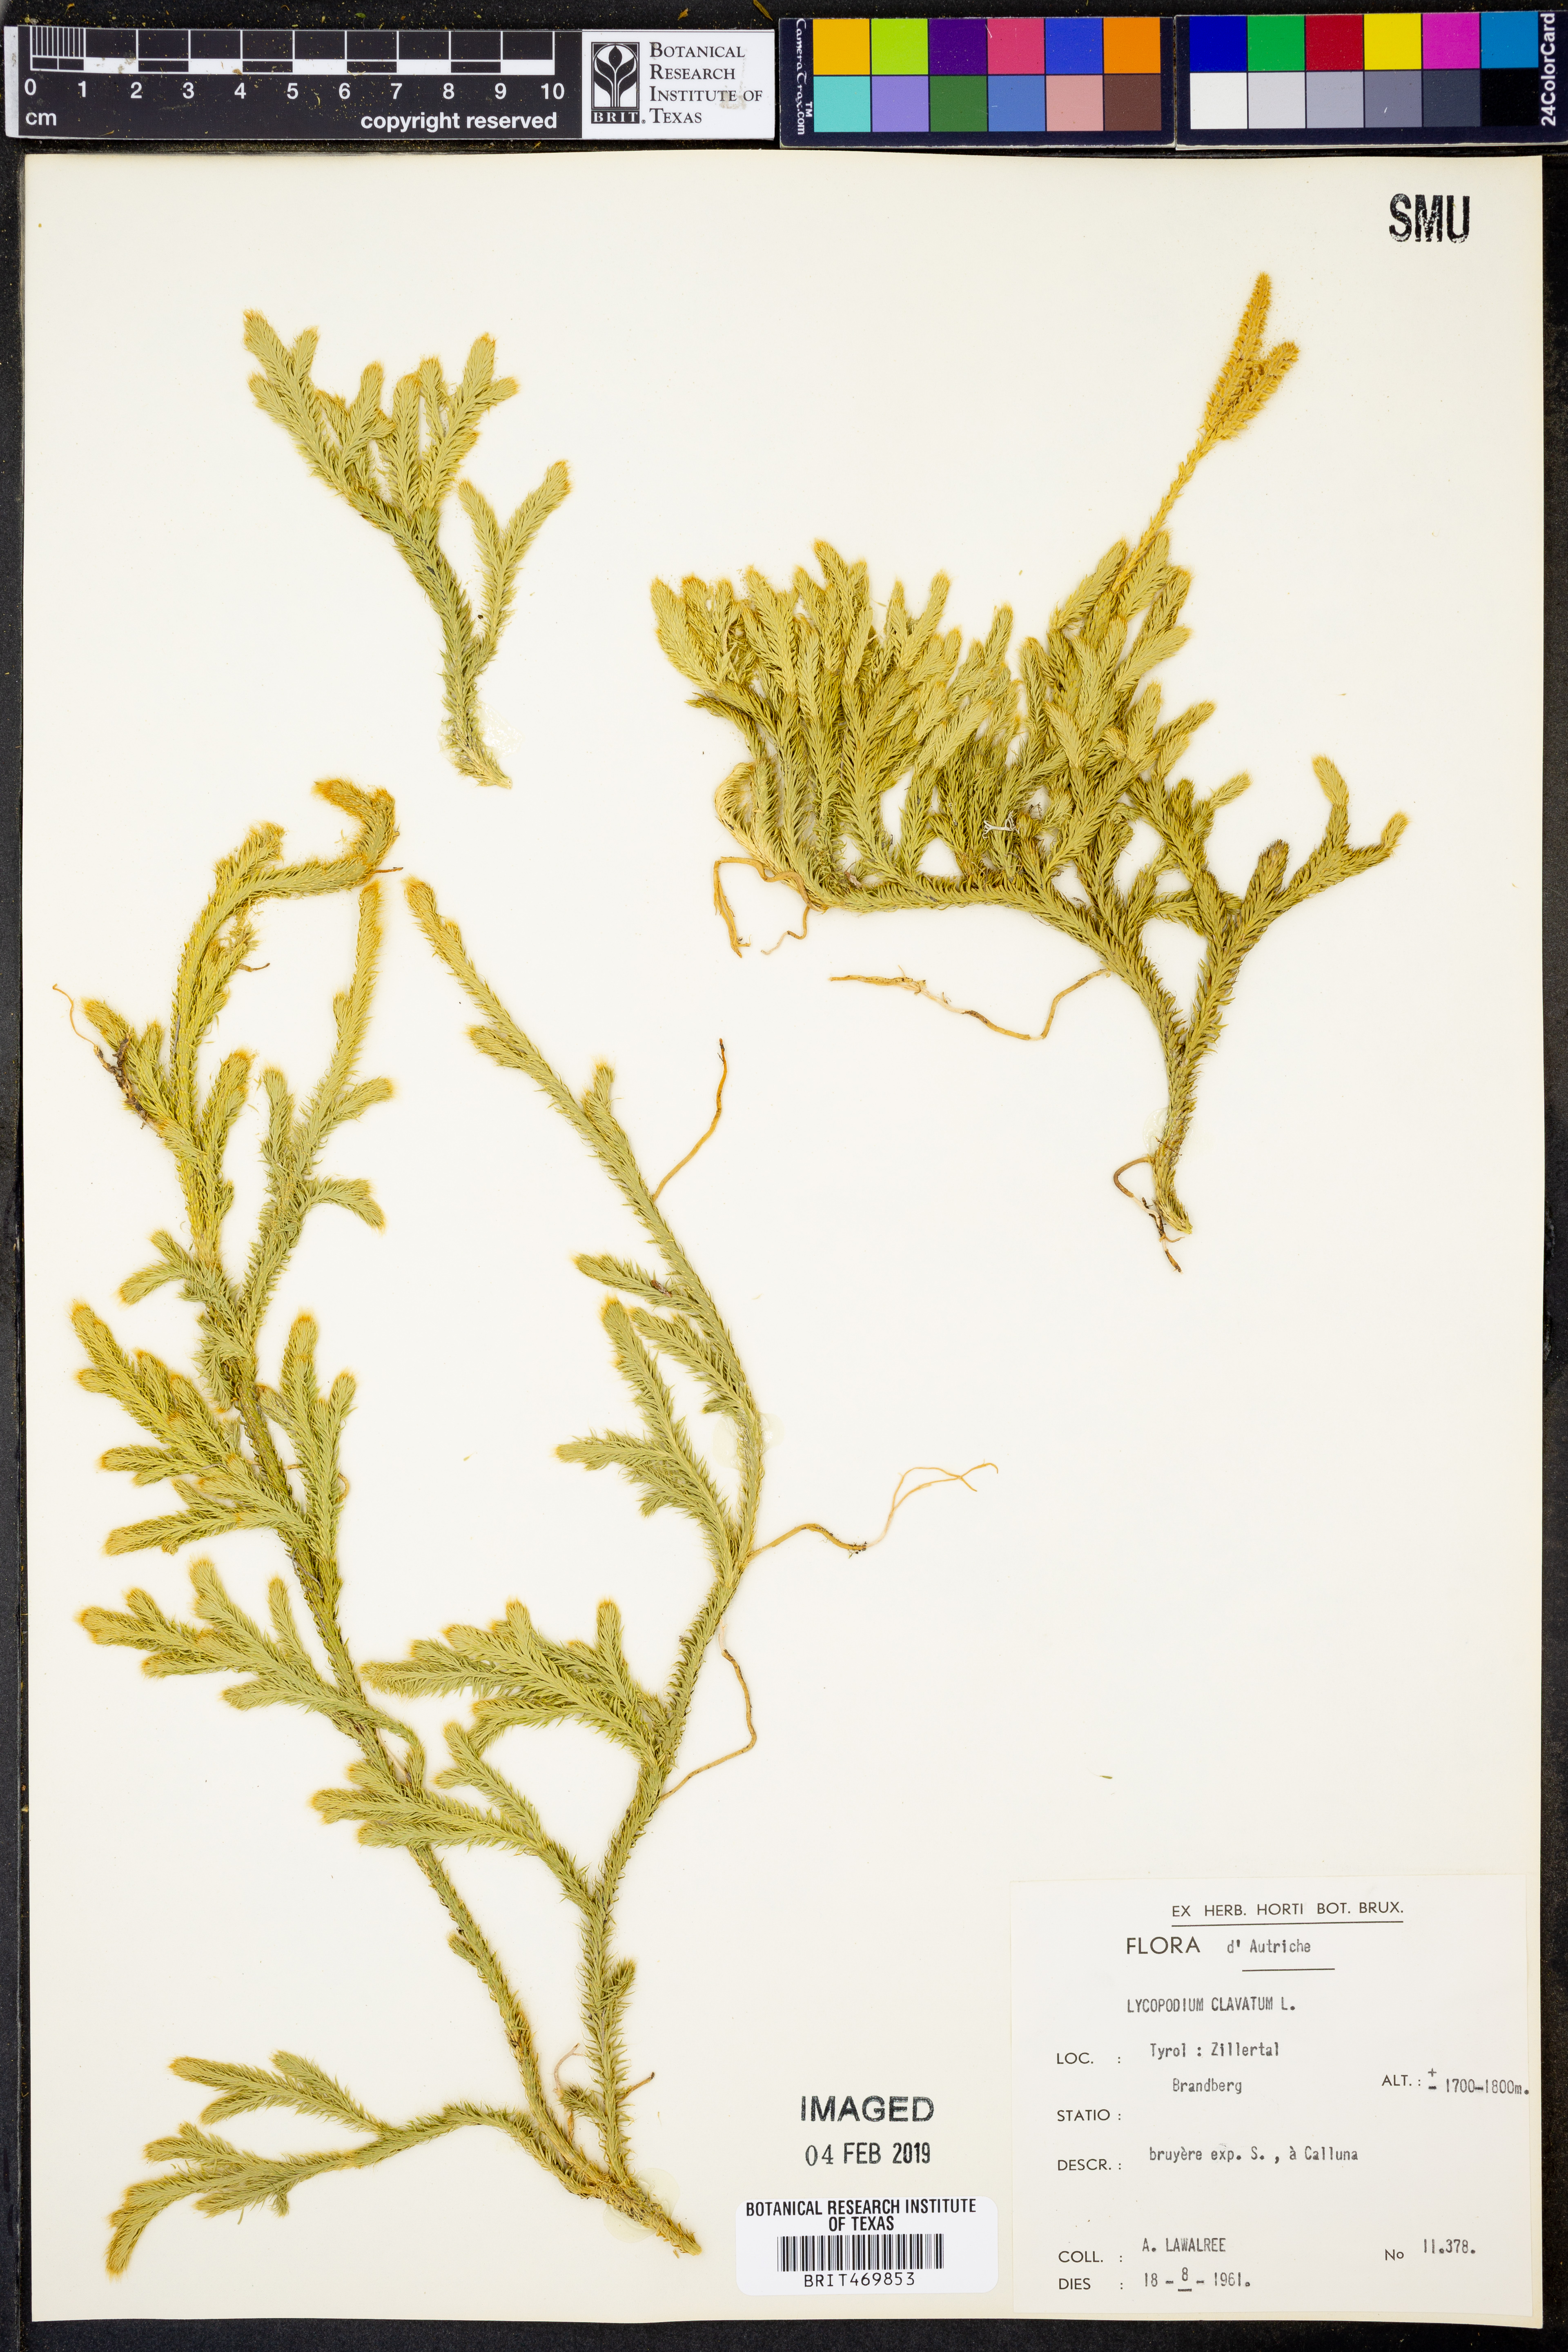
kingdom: Plantae
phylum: Tracheophyta
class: Lycopodiopsida
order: Lycopodiales
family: Lycopodiaceae
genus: Lycopodium
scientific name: Lycopodium clavatum
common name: Stag's-horn clubmoss
